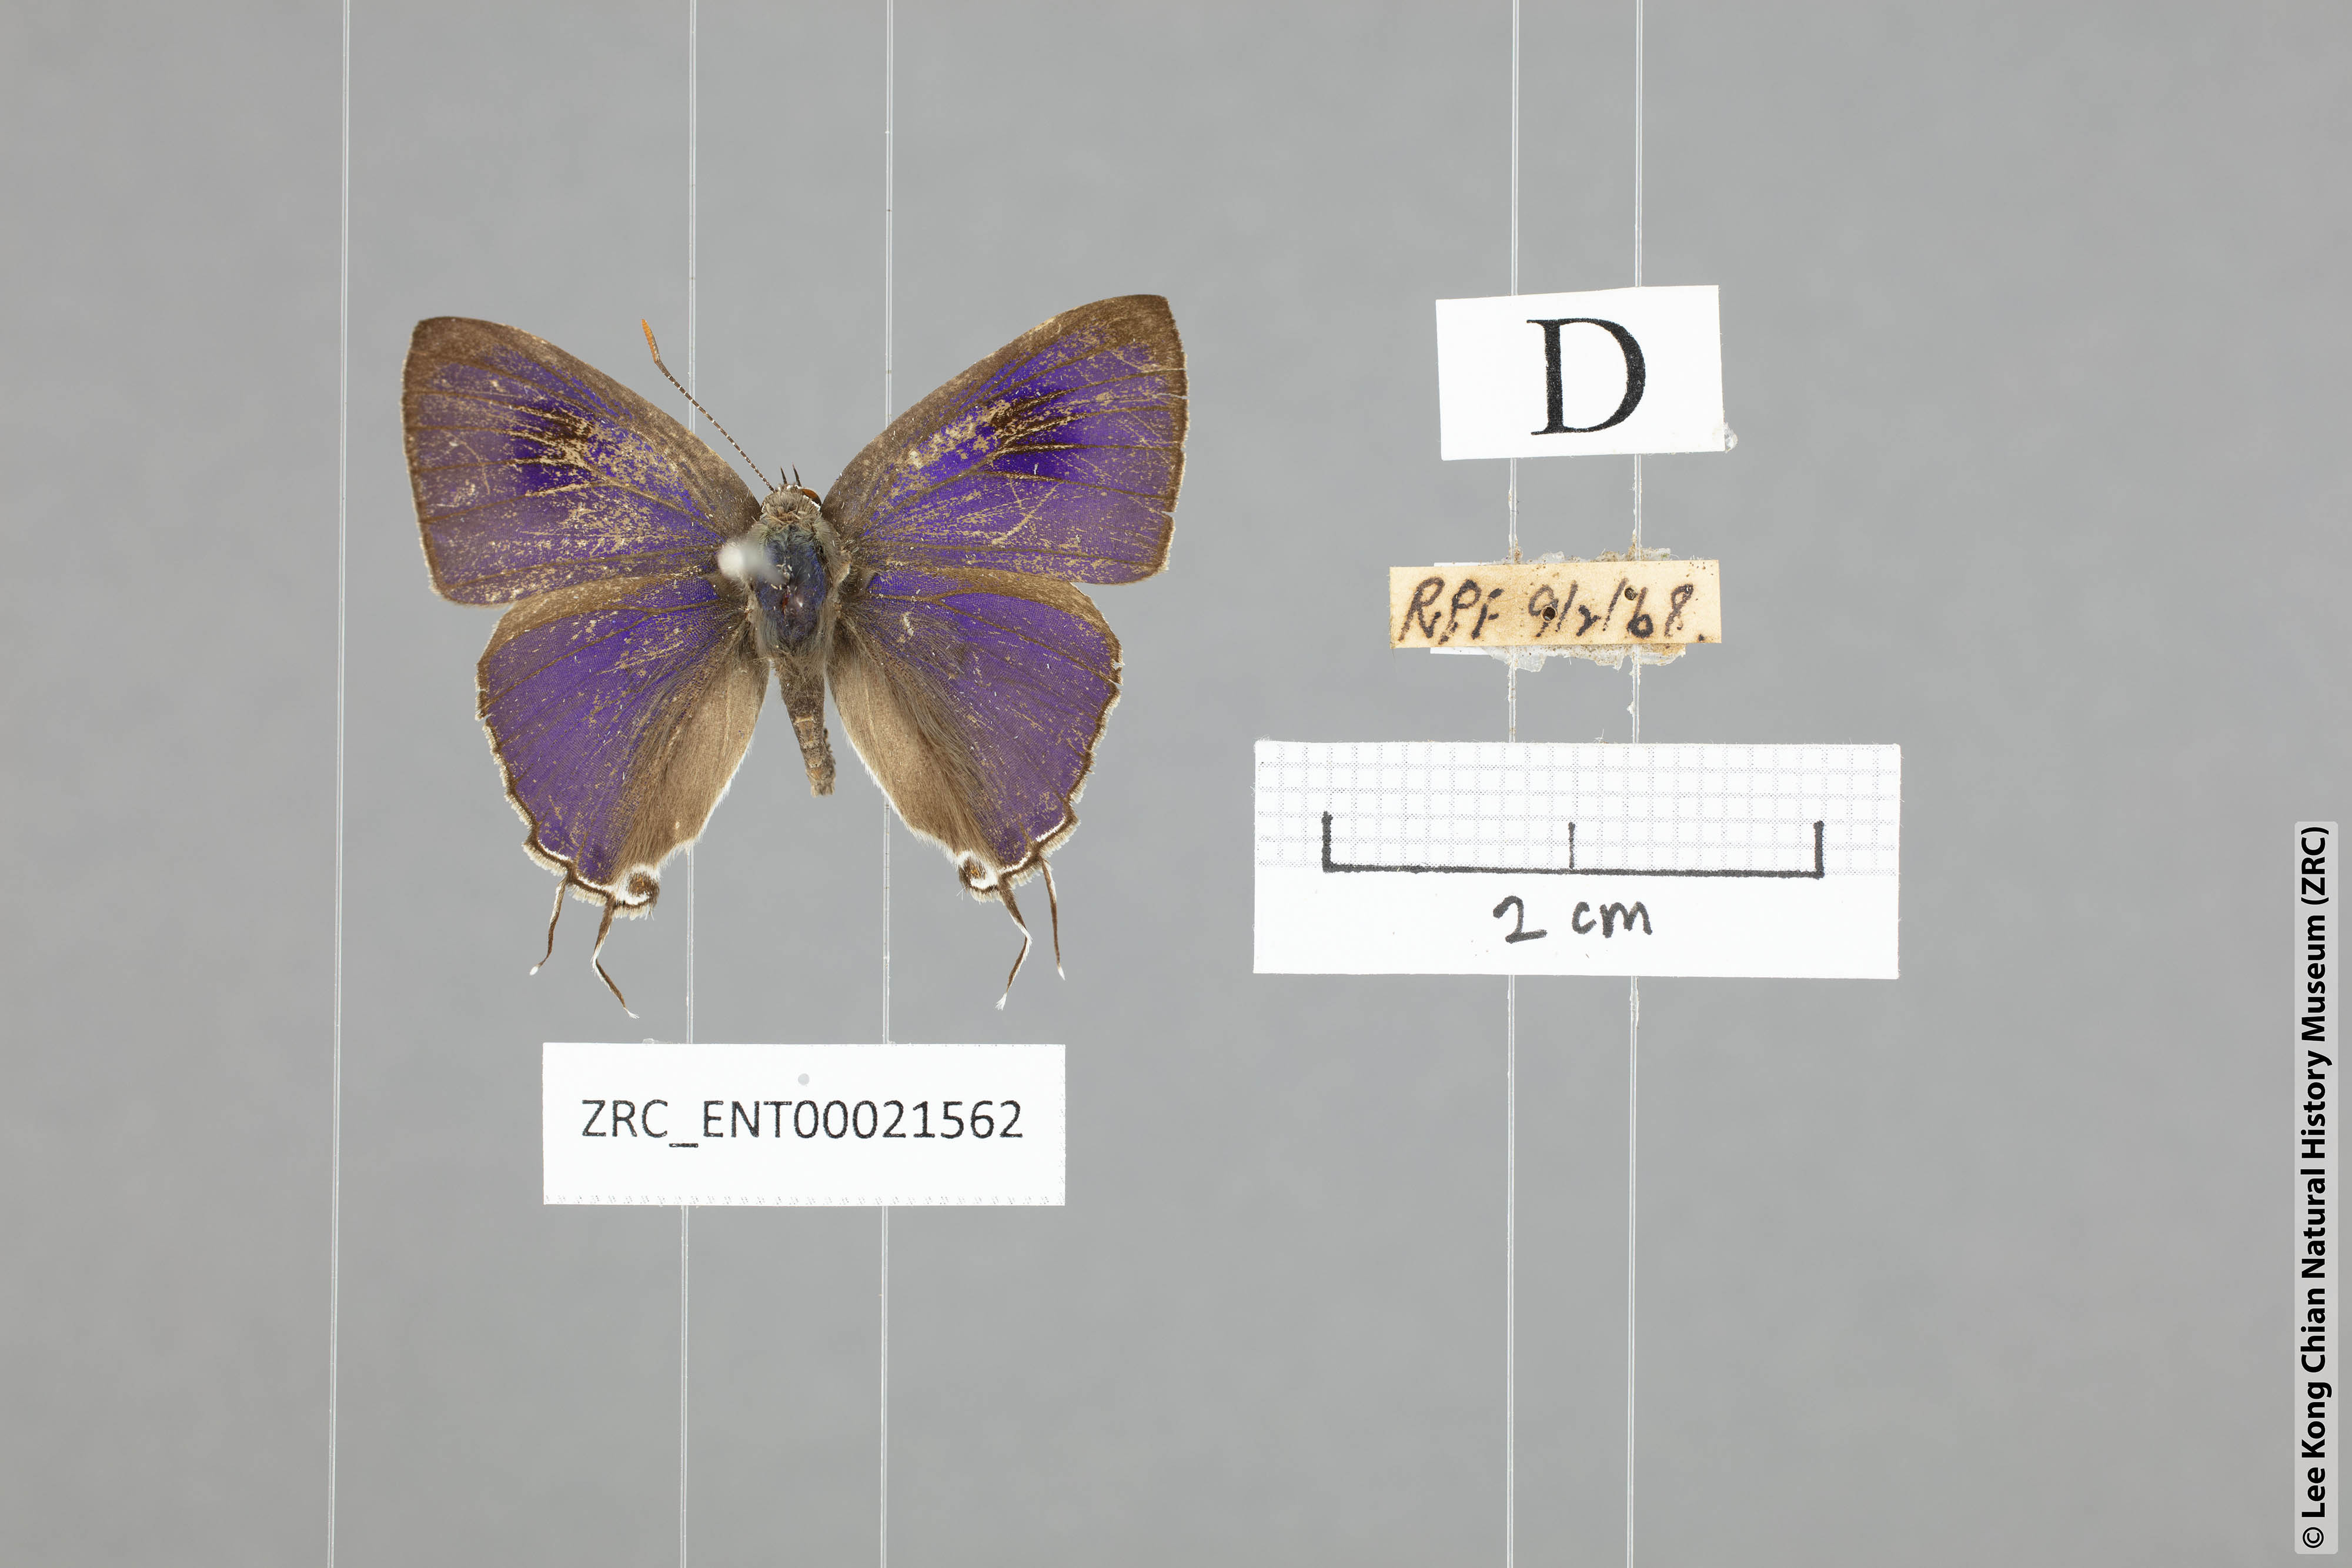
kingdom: Animalia
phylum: Arthropoda
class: Insecta
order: Lepidoptera
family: Lycaenidae
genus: Hypolycaena
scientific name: Hypolycaena erylus
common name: Common tit
